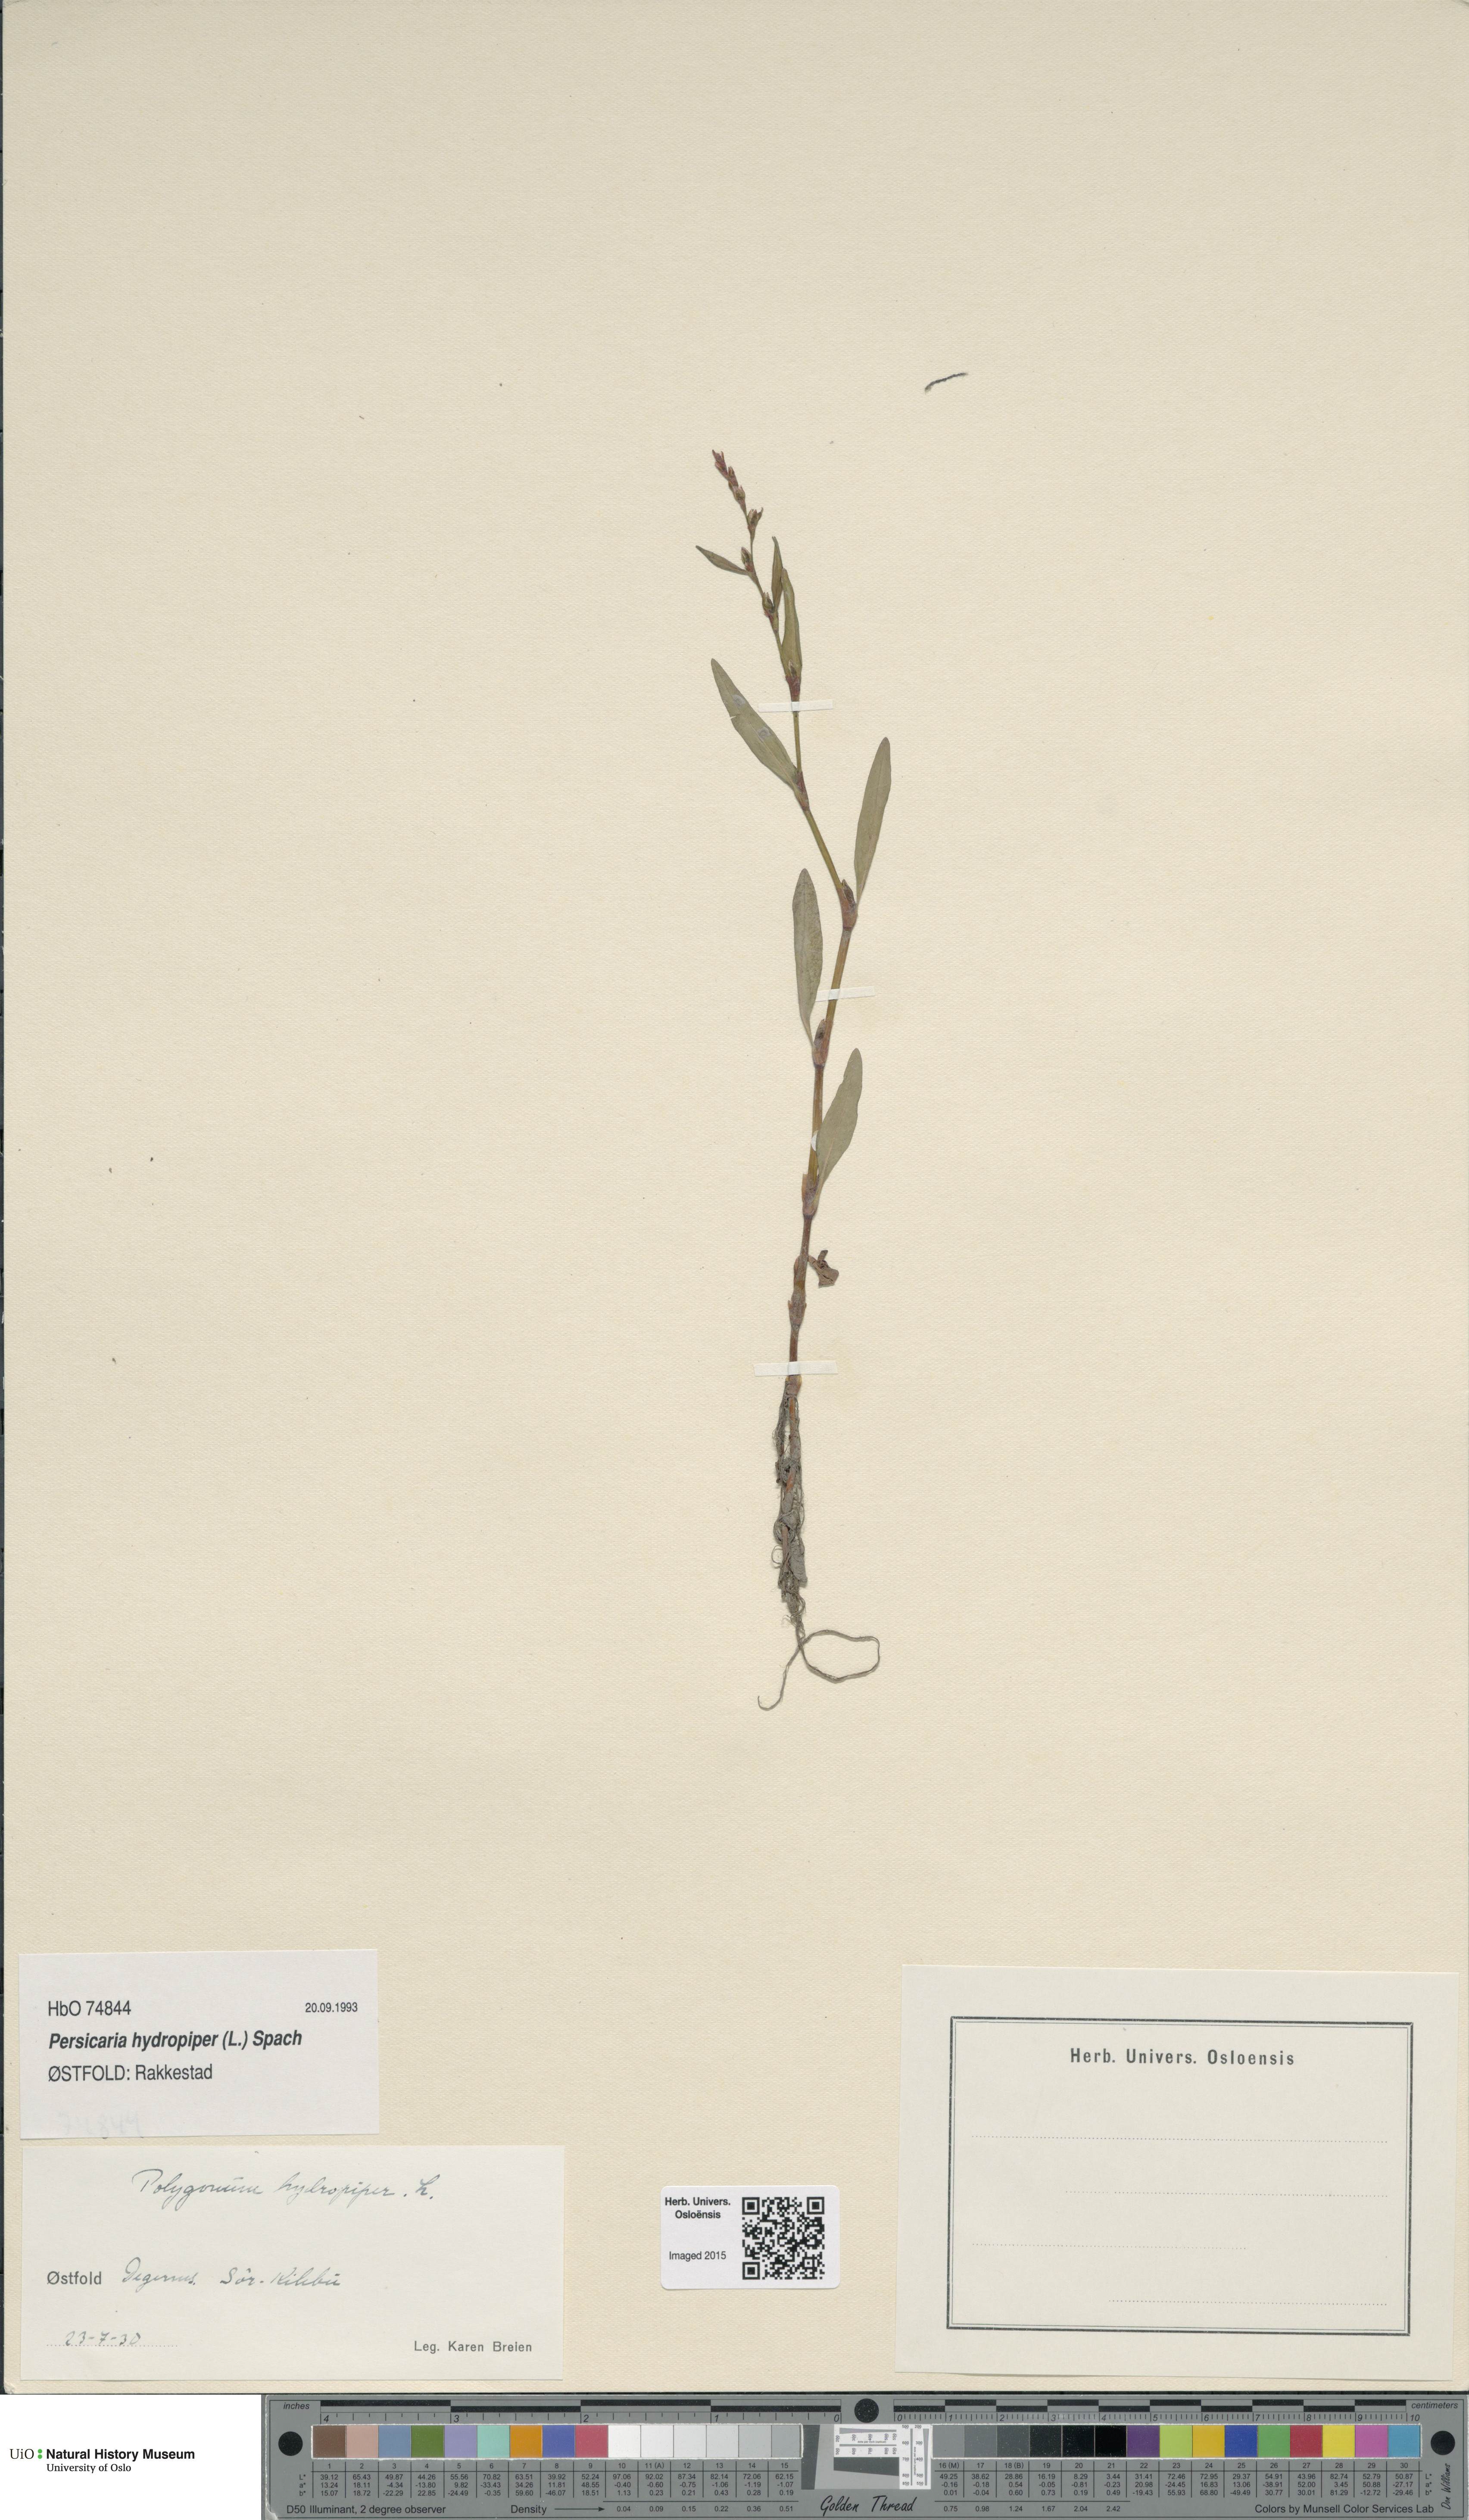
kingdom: Plantae
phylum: Tracheophyta
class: Magnoliopsida
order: Caryophyllales
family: Polygonaceae
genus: Persicaria
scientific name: Persicaria hydropiper
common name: Water-pepper
